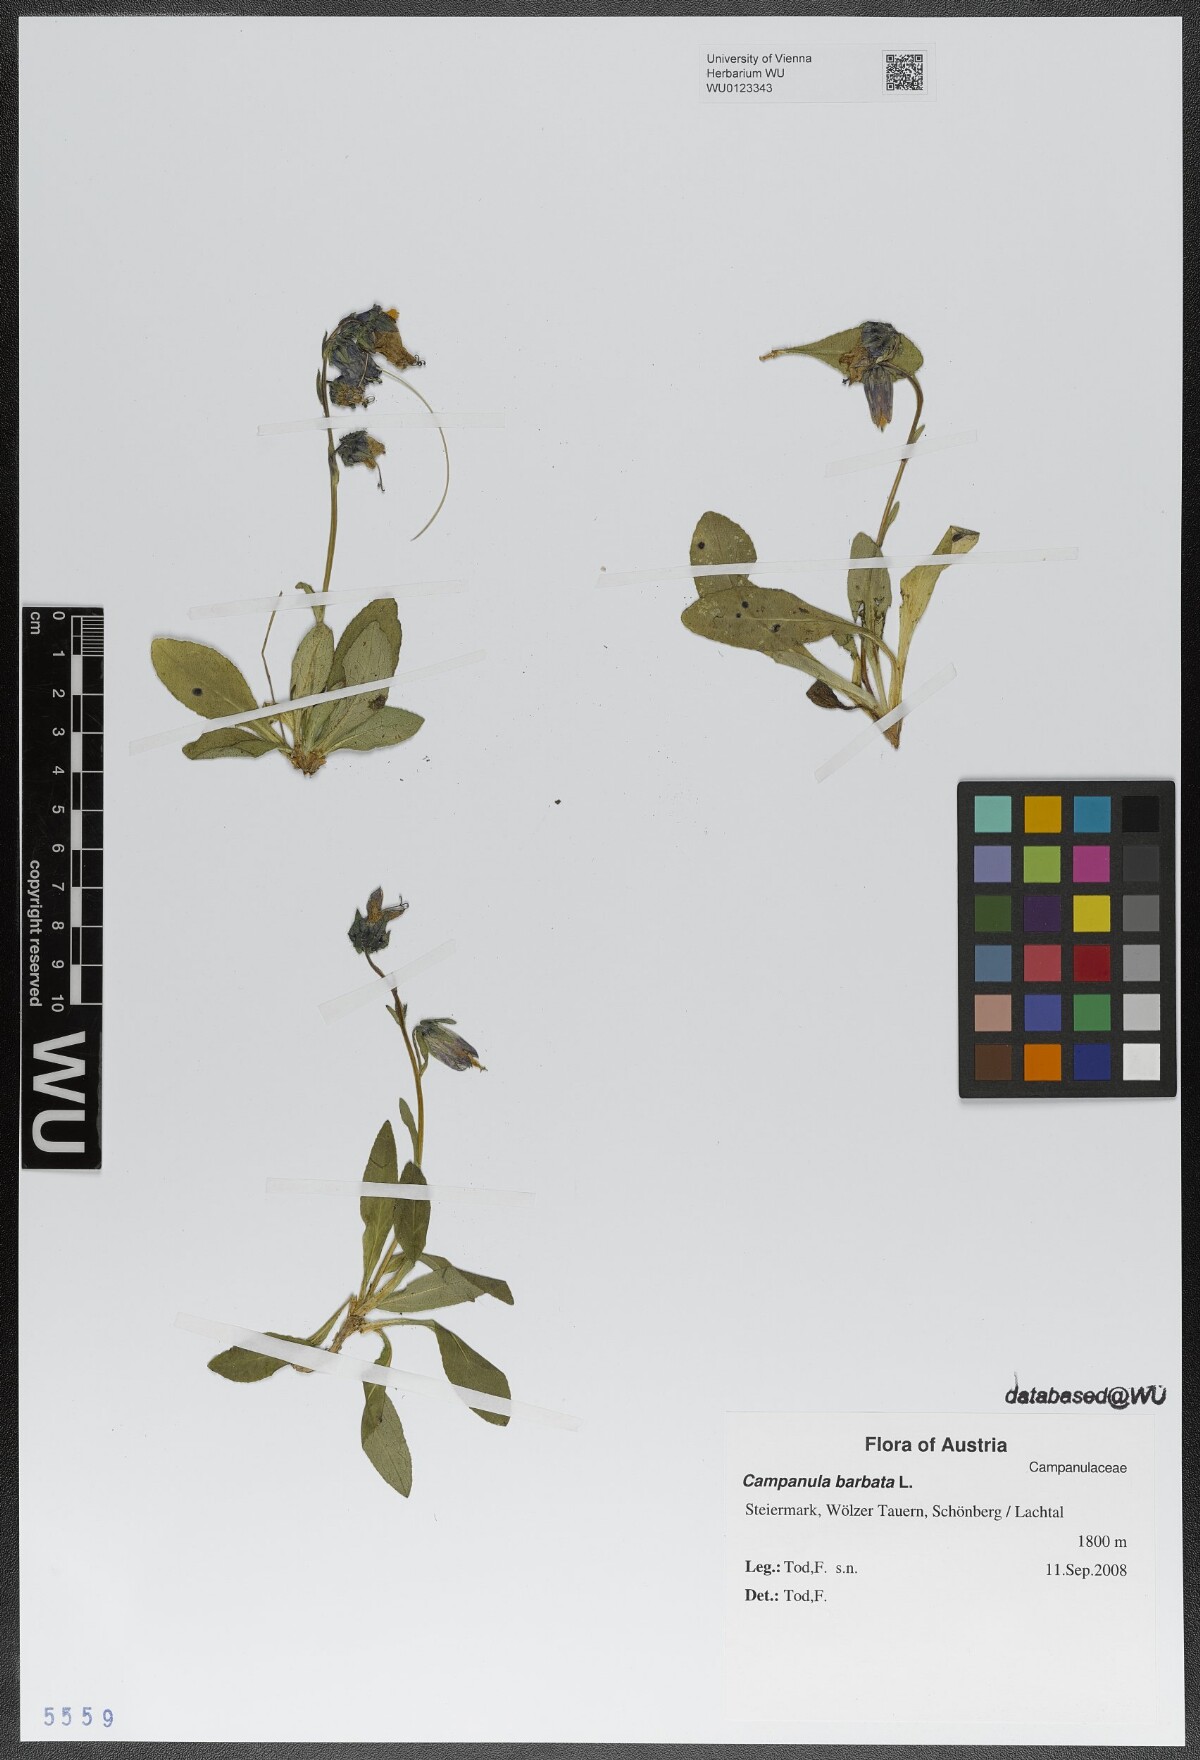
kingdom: Plantae
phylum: Tracheophyta
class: Magnoliopsida
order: Asterales
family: Campanulaceae
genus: Campanula
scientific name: Campanula barbata
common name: Bearded bellflower
